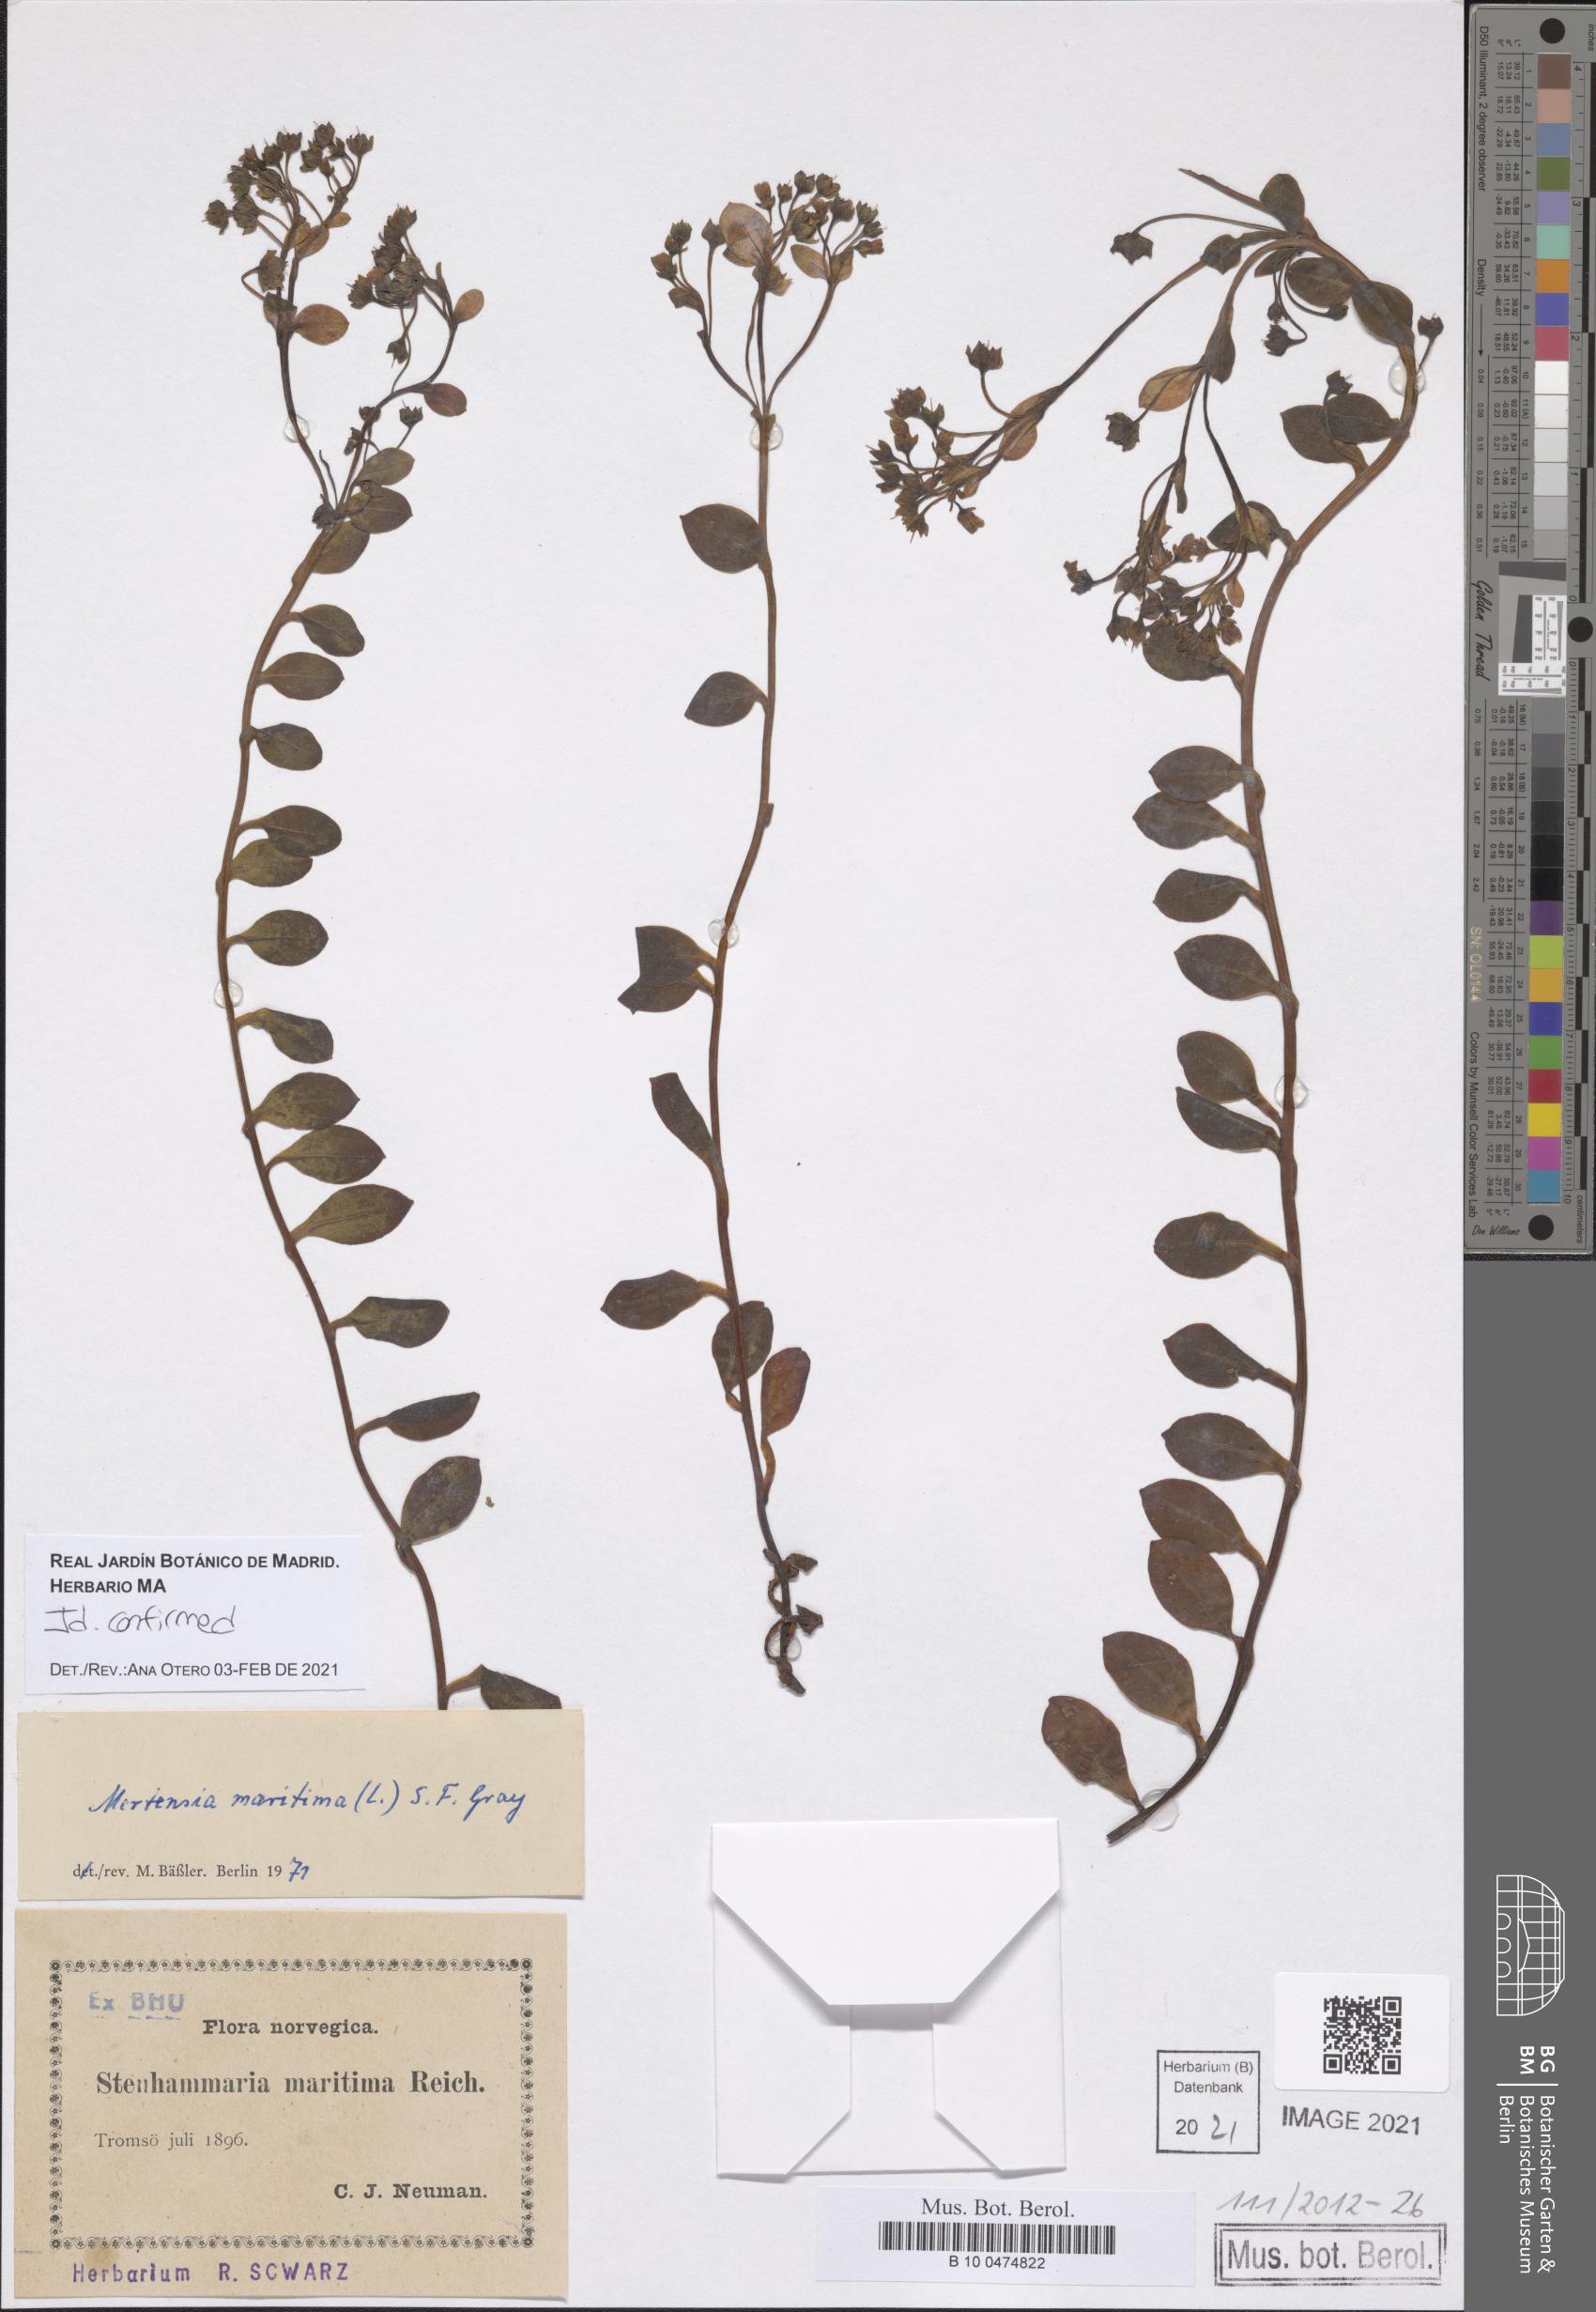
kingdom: Plantae
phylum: Tracheophyta
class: Magnoliopsida
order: Boraginales
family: Boraginaceae
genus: Mertensia
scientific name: Mertensia maritima
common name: Oysterplant
